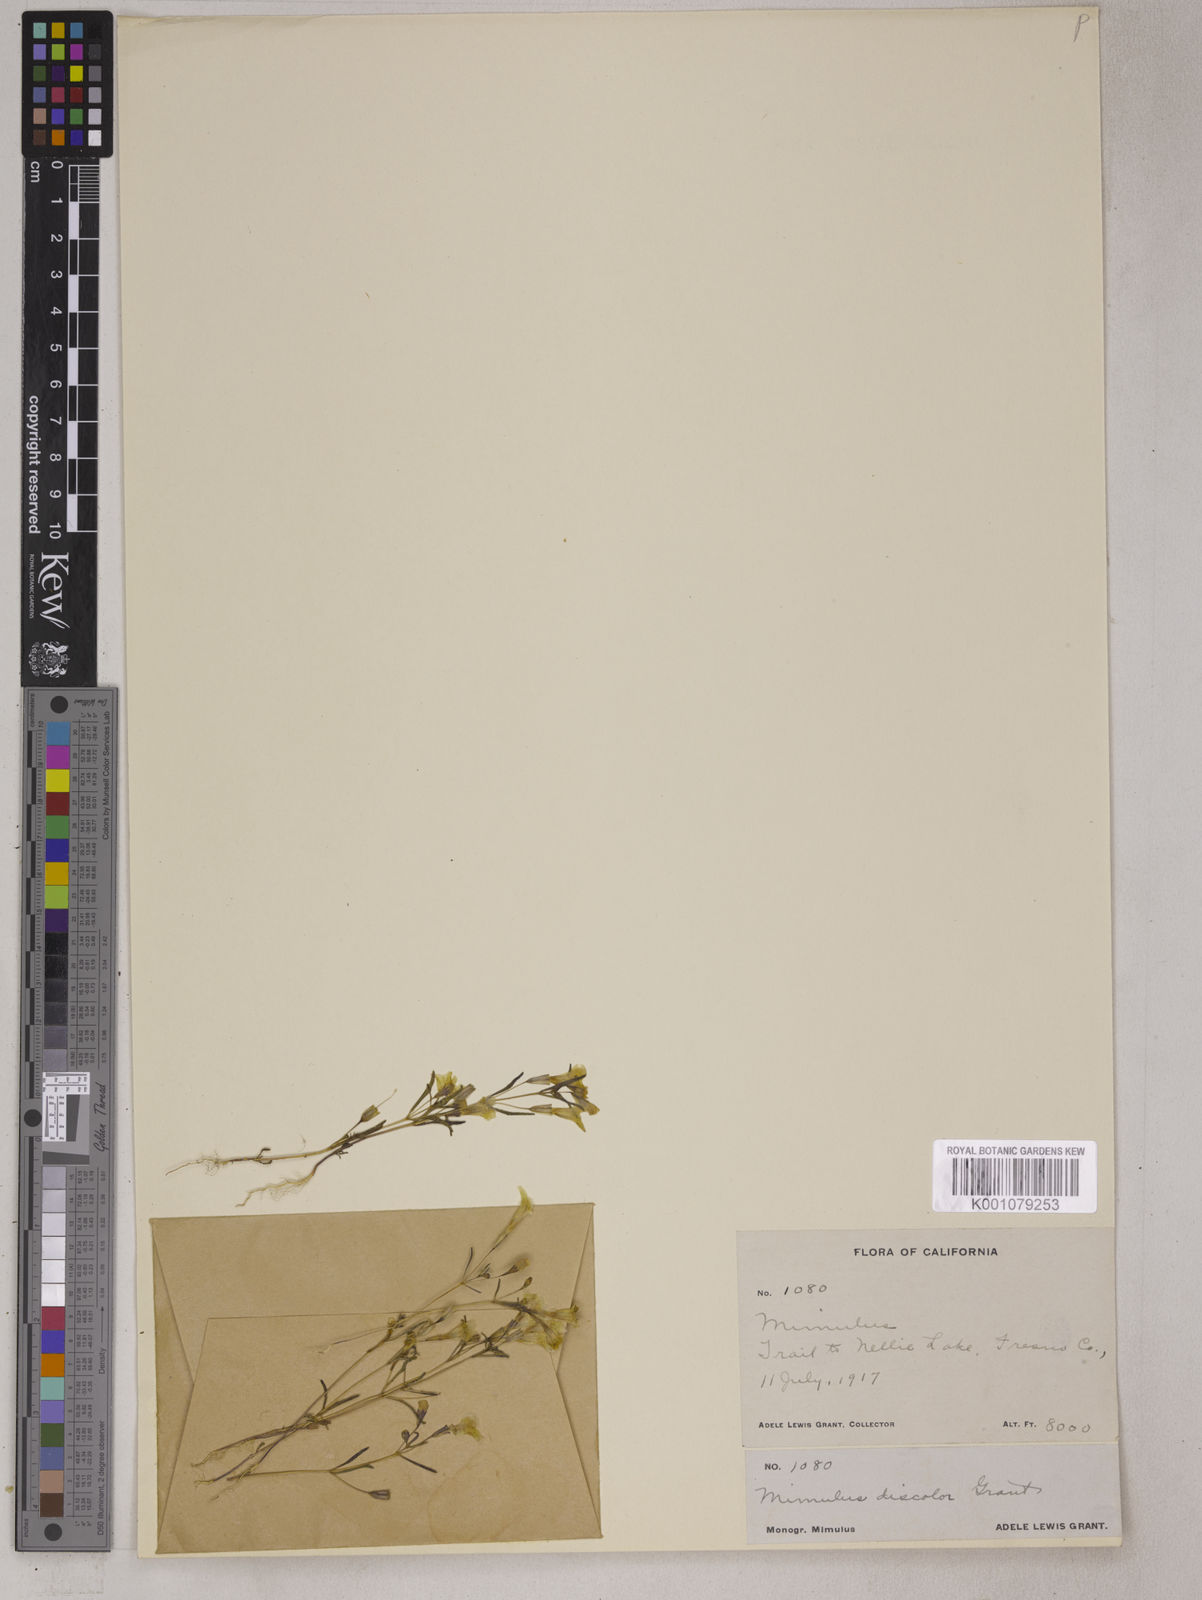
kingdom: Plantae
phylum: Tracheophyta
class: Magnoliopsida
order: Lamiales
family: Phrymaceae
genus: Erythranthe
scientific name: Erythranthe discolor
